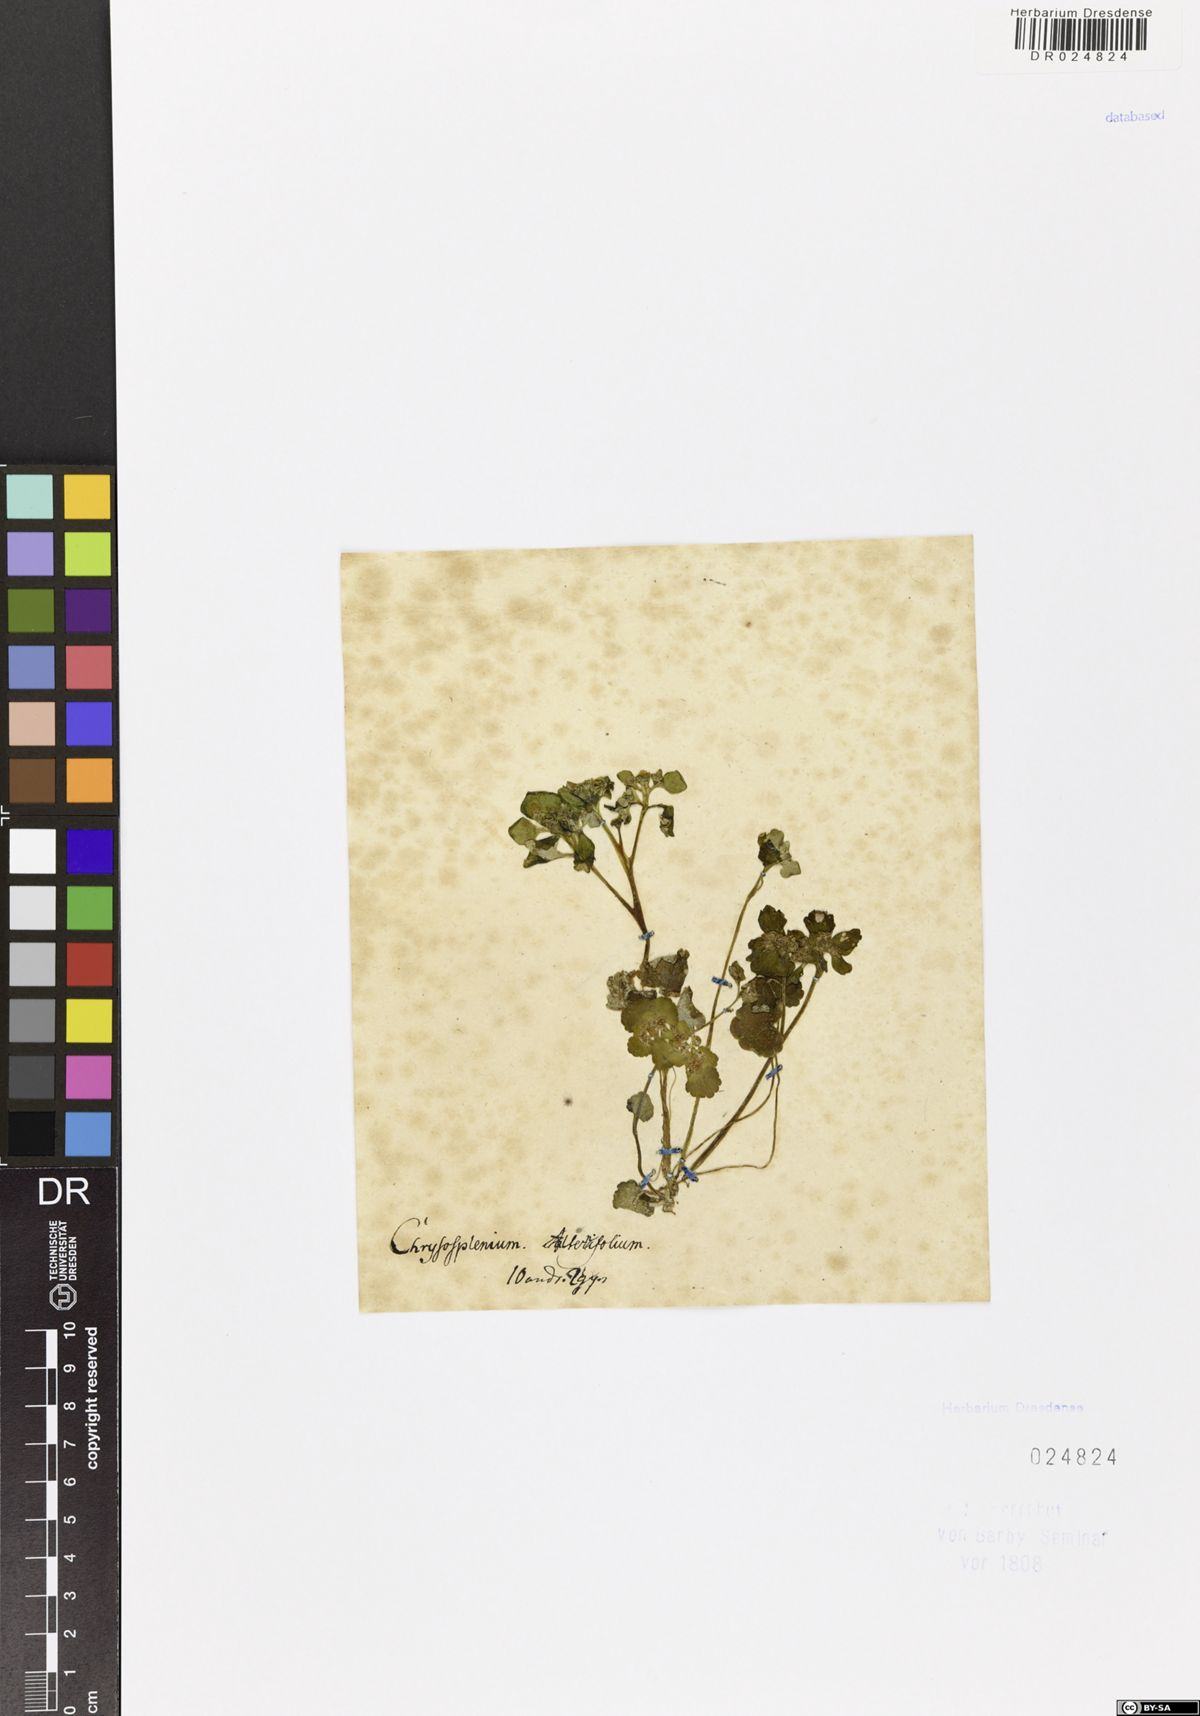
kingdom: Plantae
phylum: Tracheophyta
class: Magnoliopsida
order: Saxifragales
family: Saxifragaceae
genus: Chrysosplenium
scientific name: Chrysosplenium alternifolium
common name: Alternate-leaved golden-saxifrage
